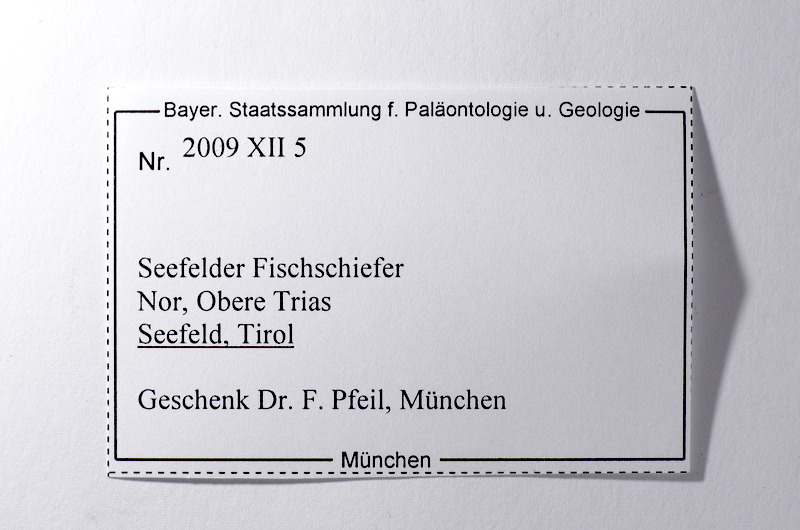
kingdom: Animalia
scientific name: Animalia
